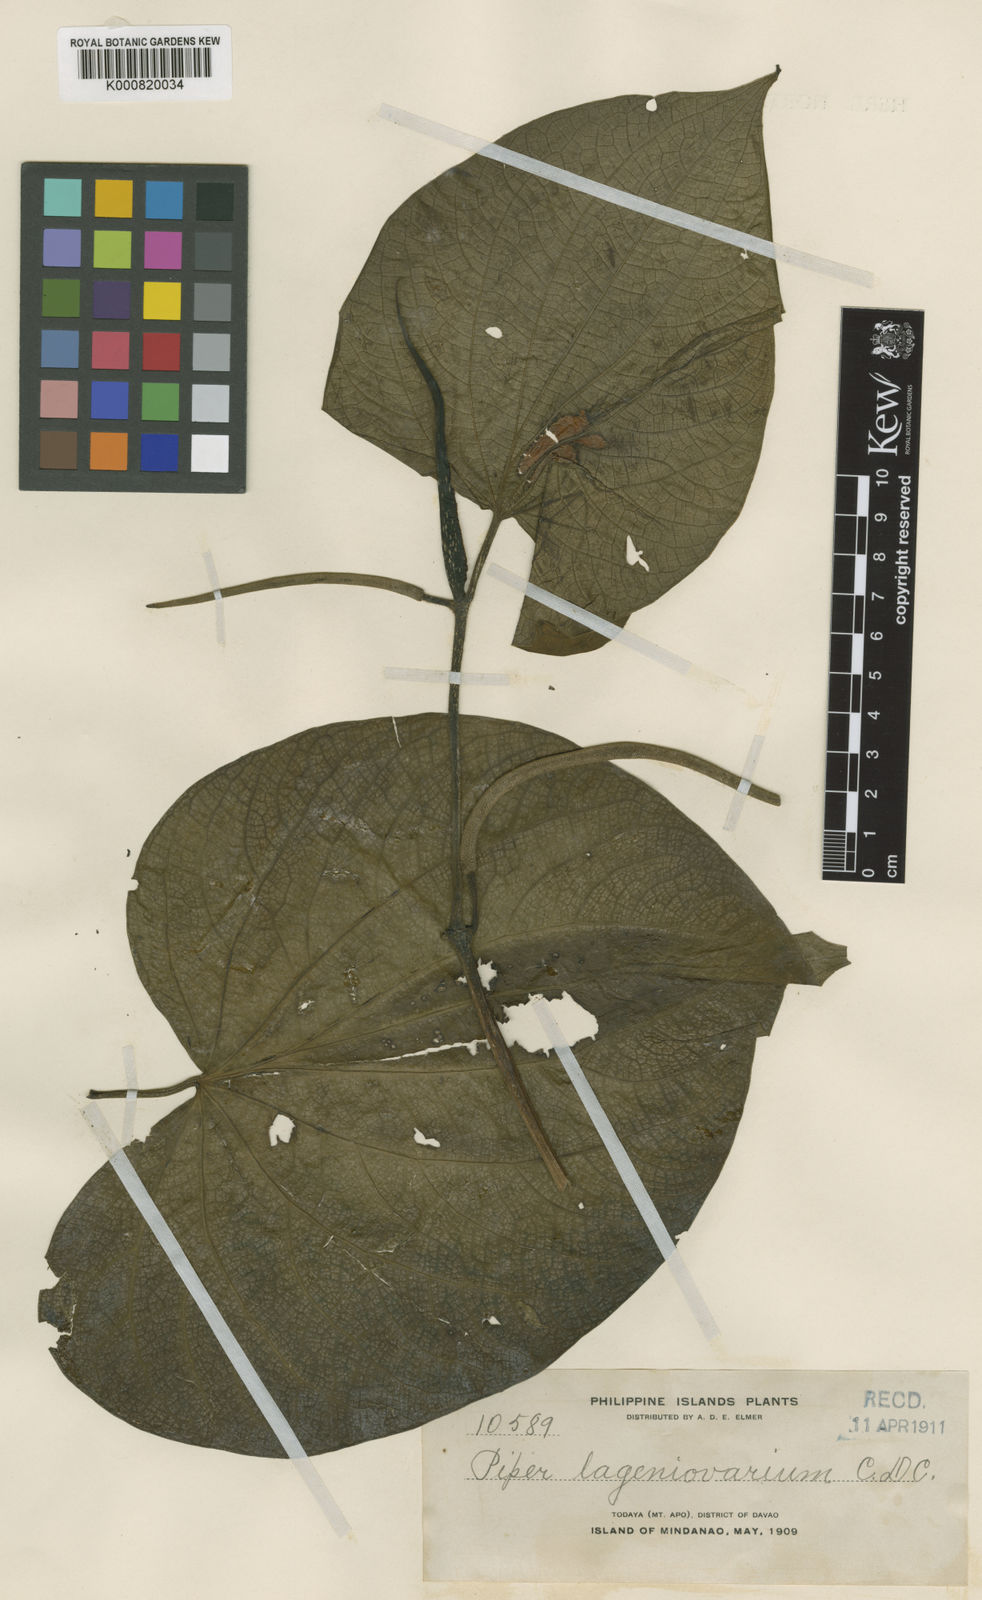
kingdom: Plantae
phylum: Tracheophyta
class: Magnoliopsida
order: Piperales
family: Piperaceae
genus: Piper
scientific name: Piper subbullatum
